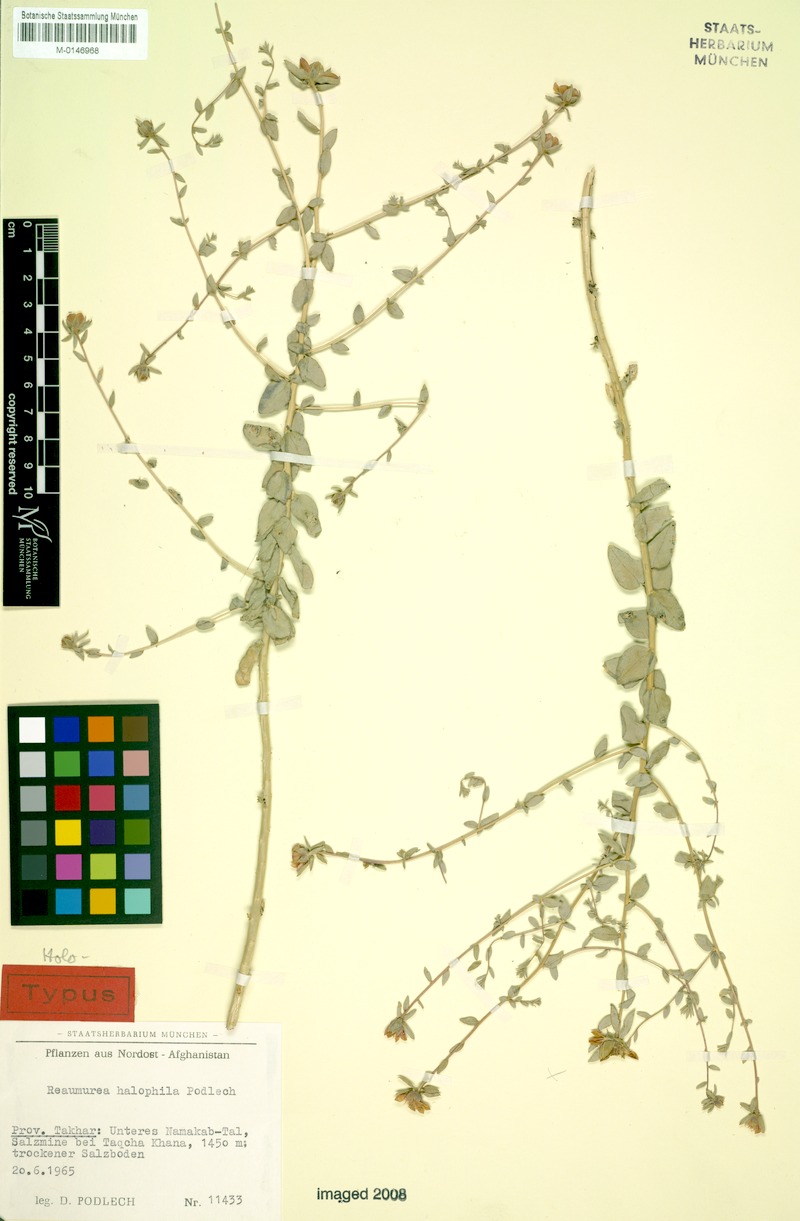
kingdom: Plantae
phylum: Tracheophyta
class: Magnoliopsida
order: Caryophyllales
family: Tamaricaceae
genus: Reaumuria
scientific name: Reaumuria halophila
